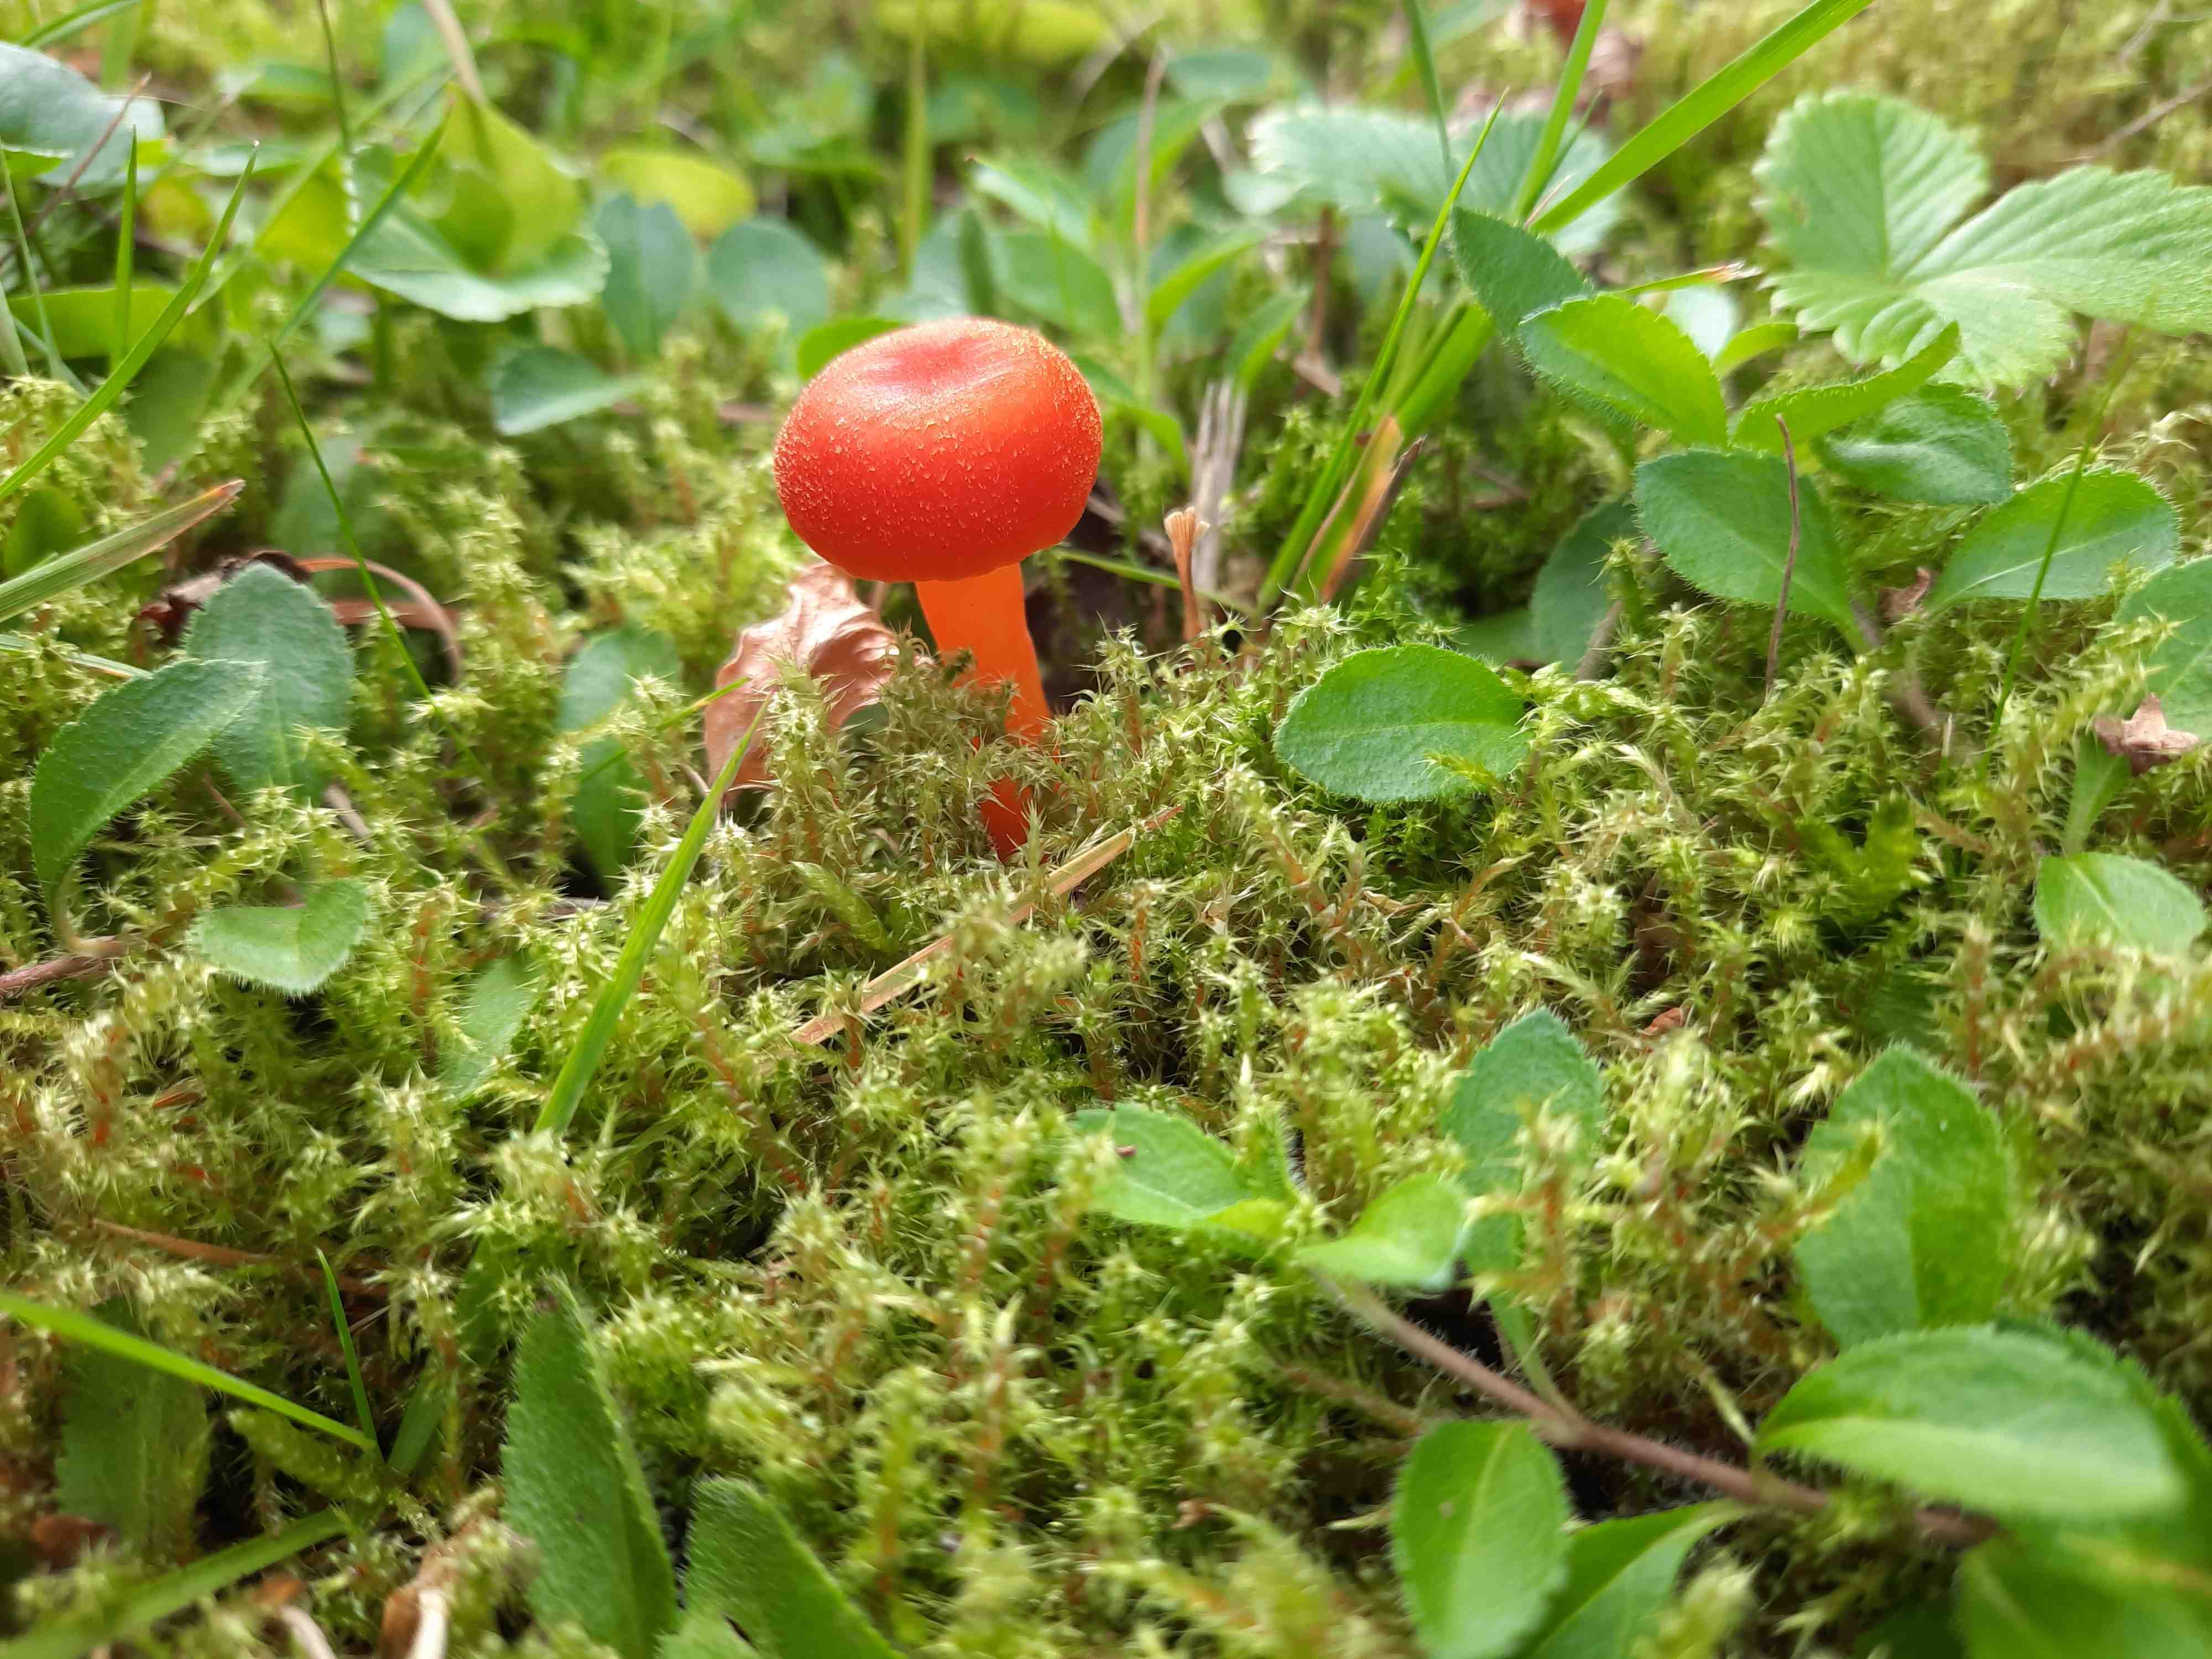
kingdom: Fungi
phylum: Basidiomycota
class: Agaricomycetes
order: Agaricales
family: Hygrophoraceae
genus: Hygrocybe
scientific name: Hygrocybe miniata
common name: mønje-vokshat
